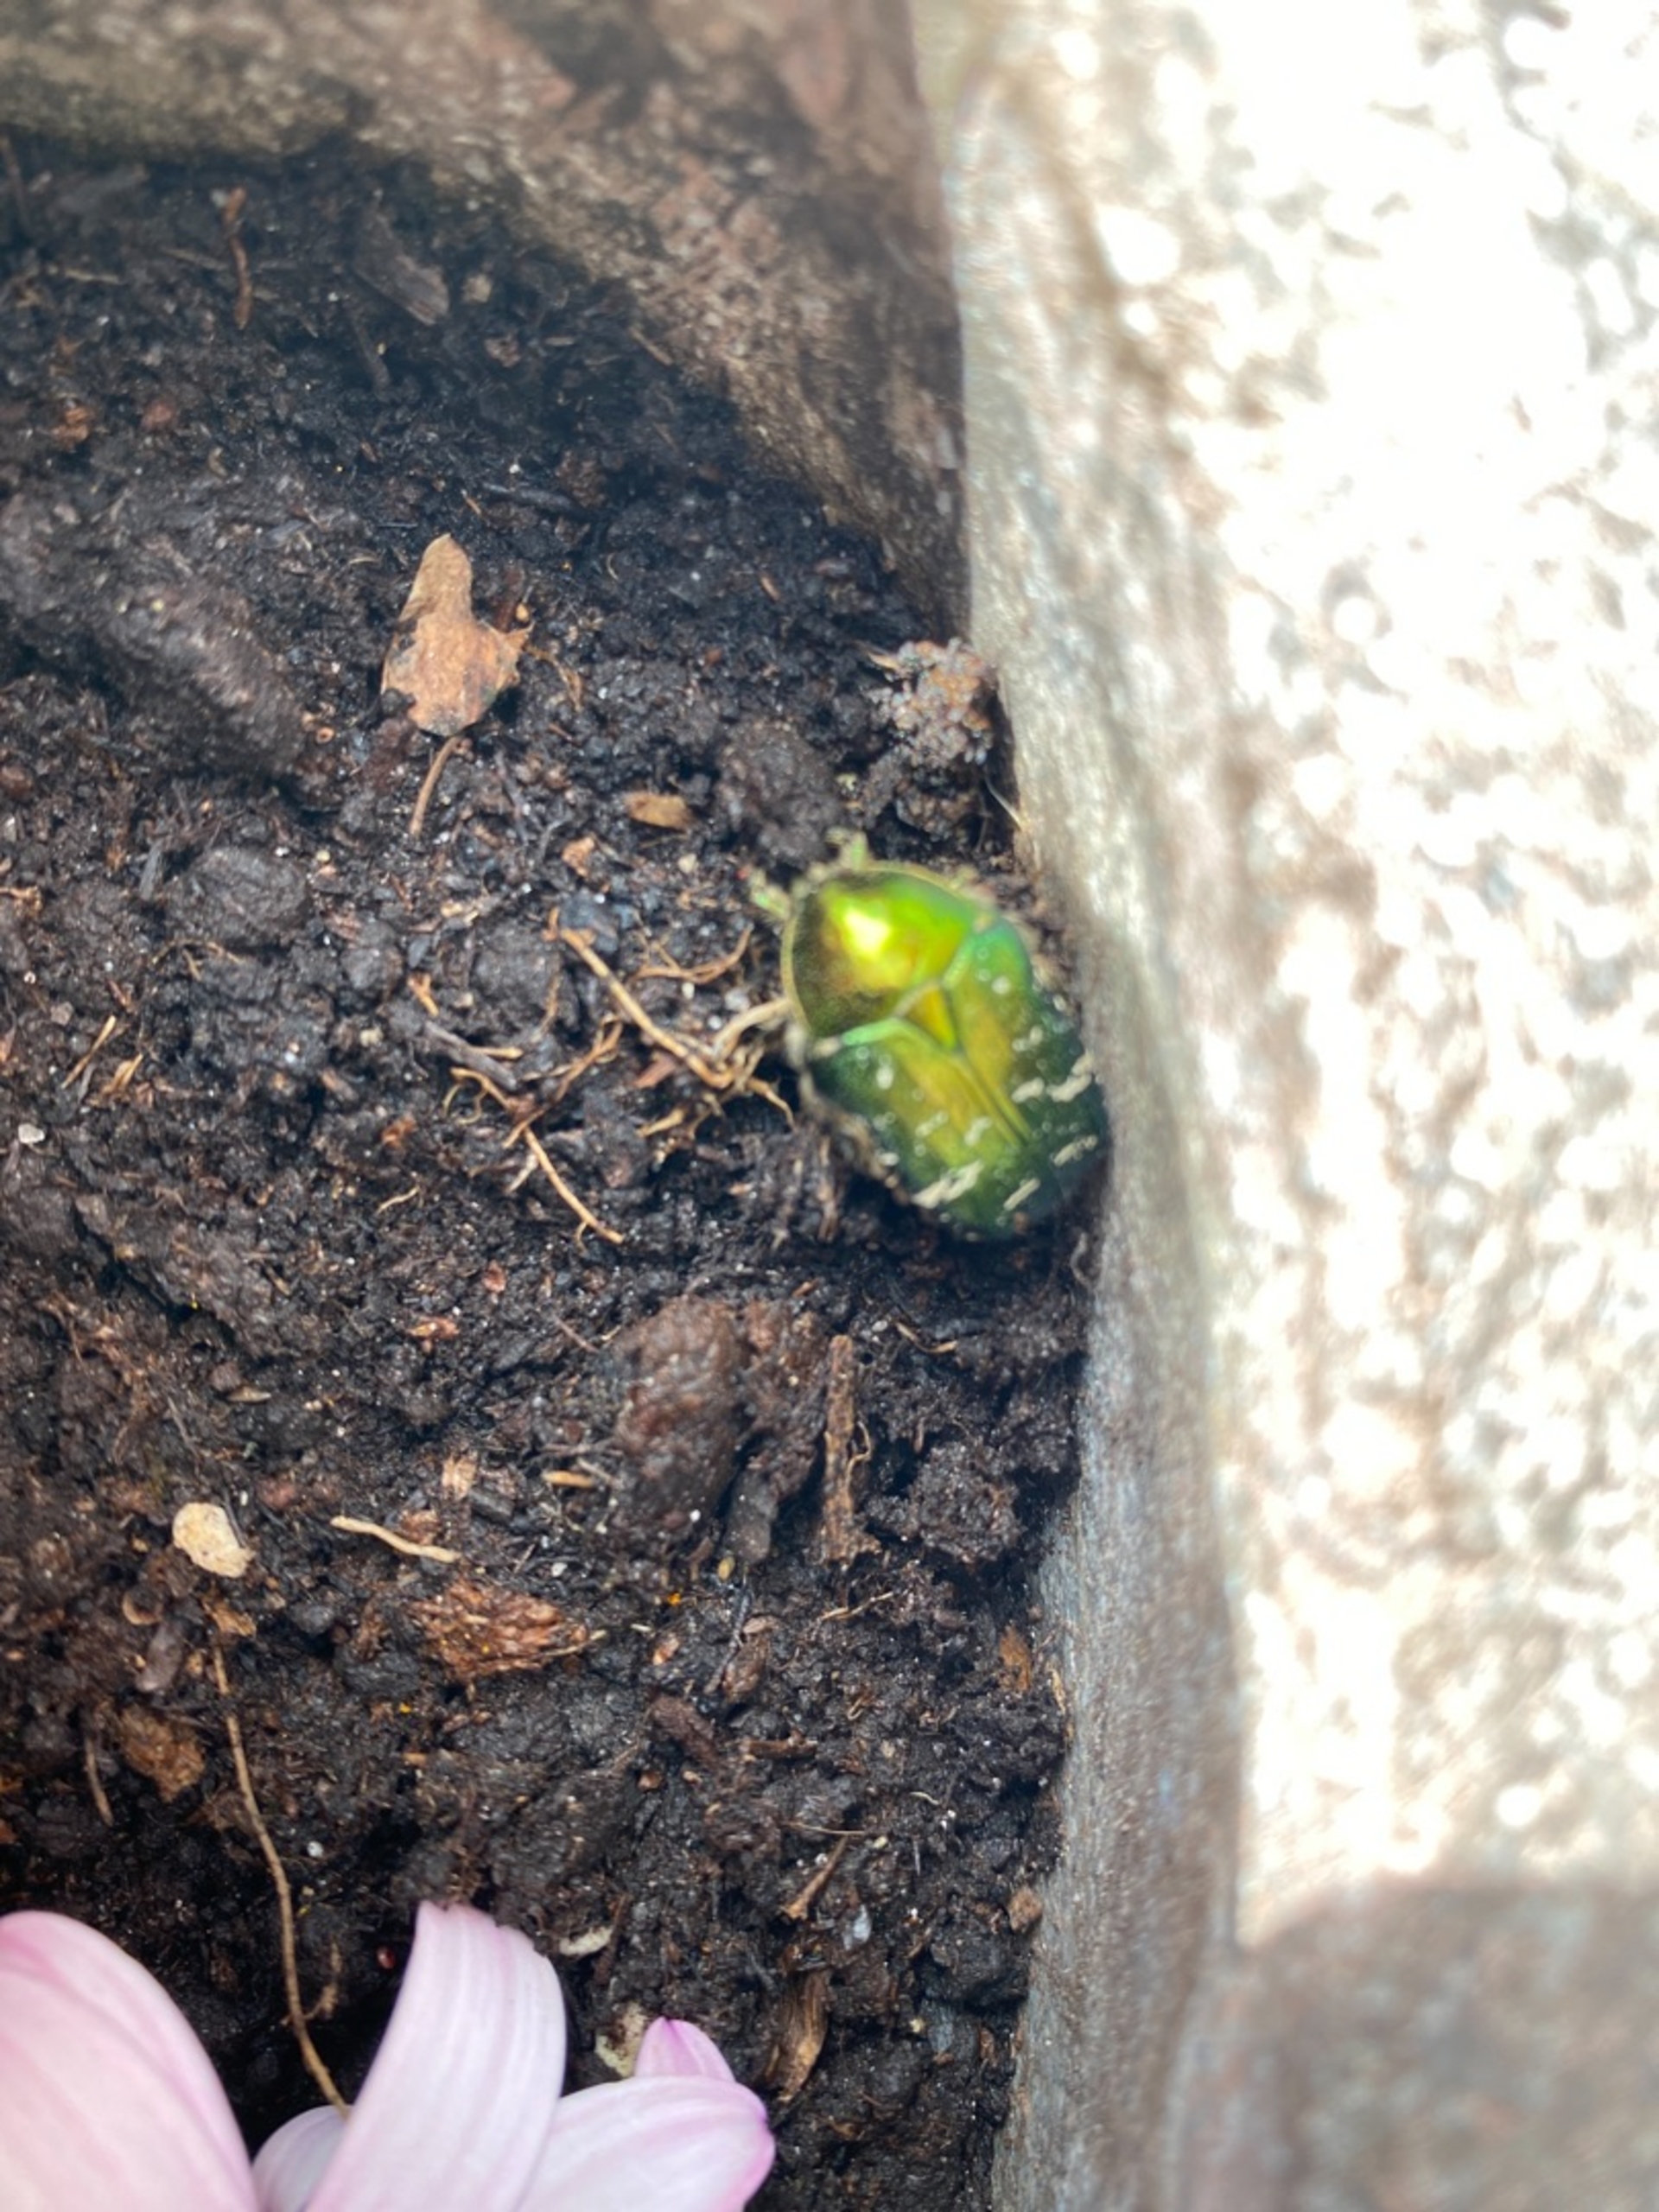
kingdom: Animalia
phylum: Arthropoda
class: Insecta
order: Coleoptera
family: Scarabaeidae
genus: Cetonia
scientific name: Cetonia aurata
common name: Grøn guldbasse
